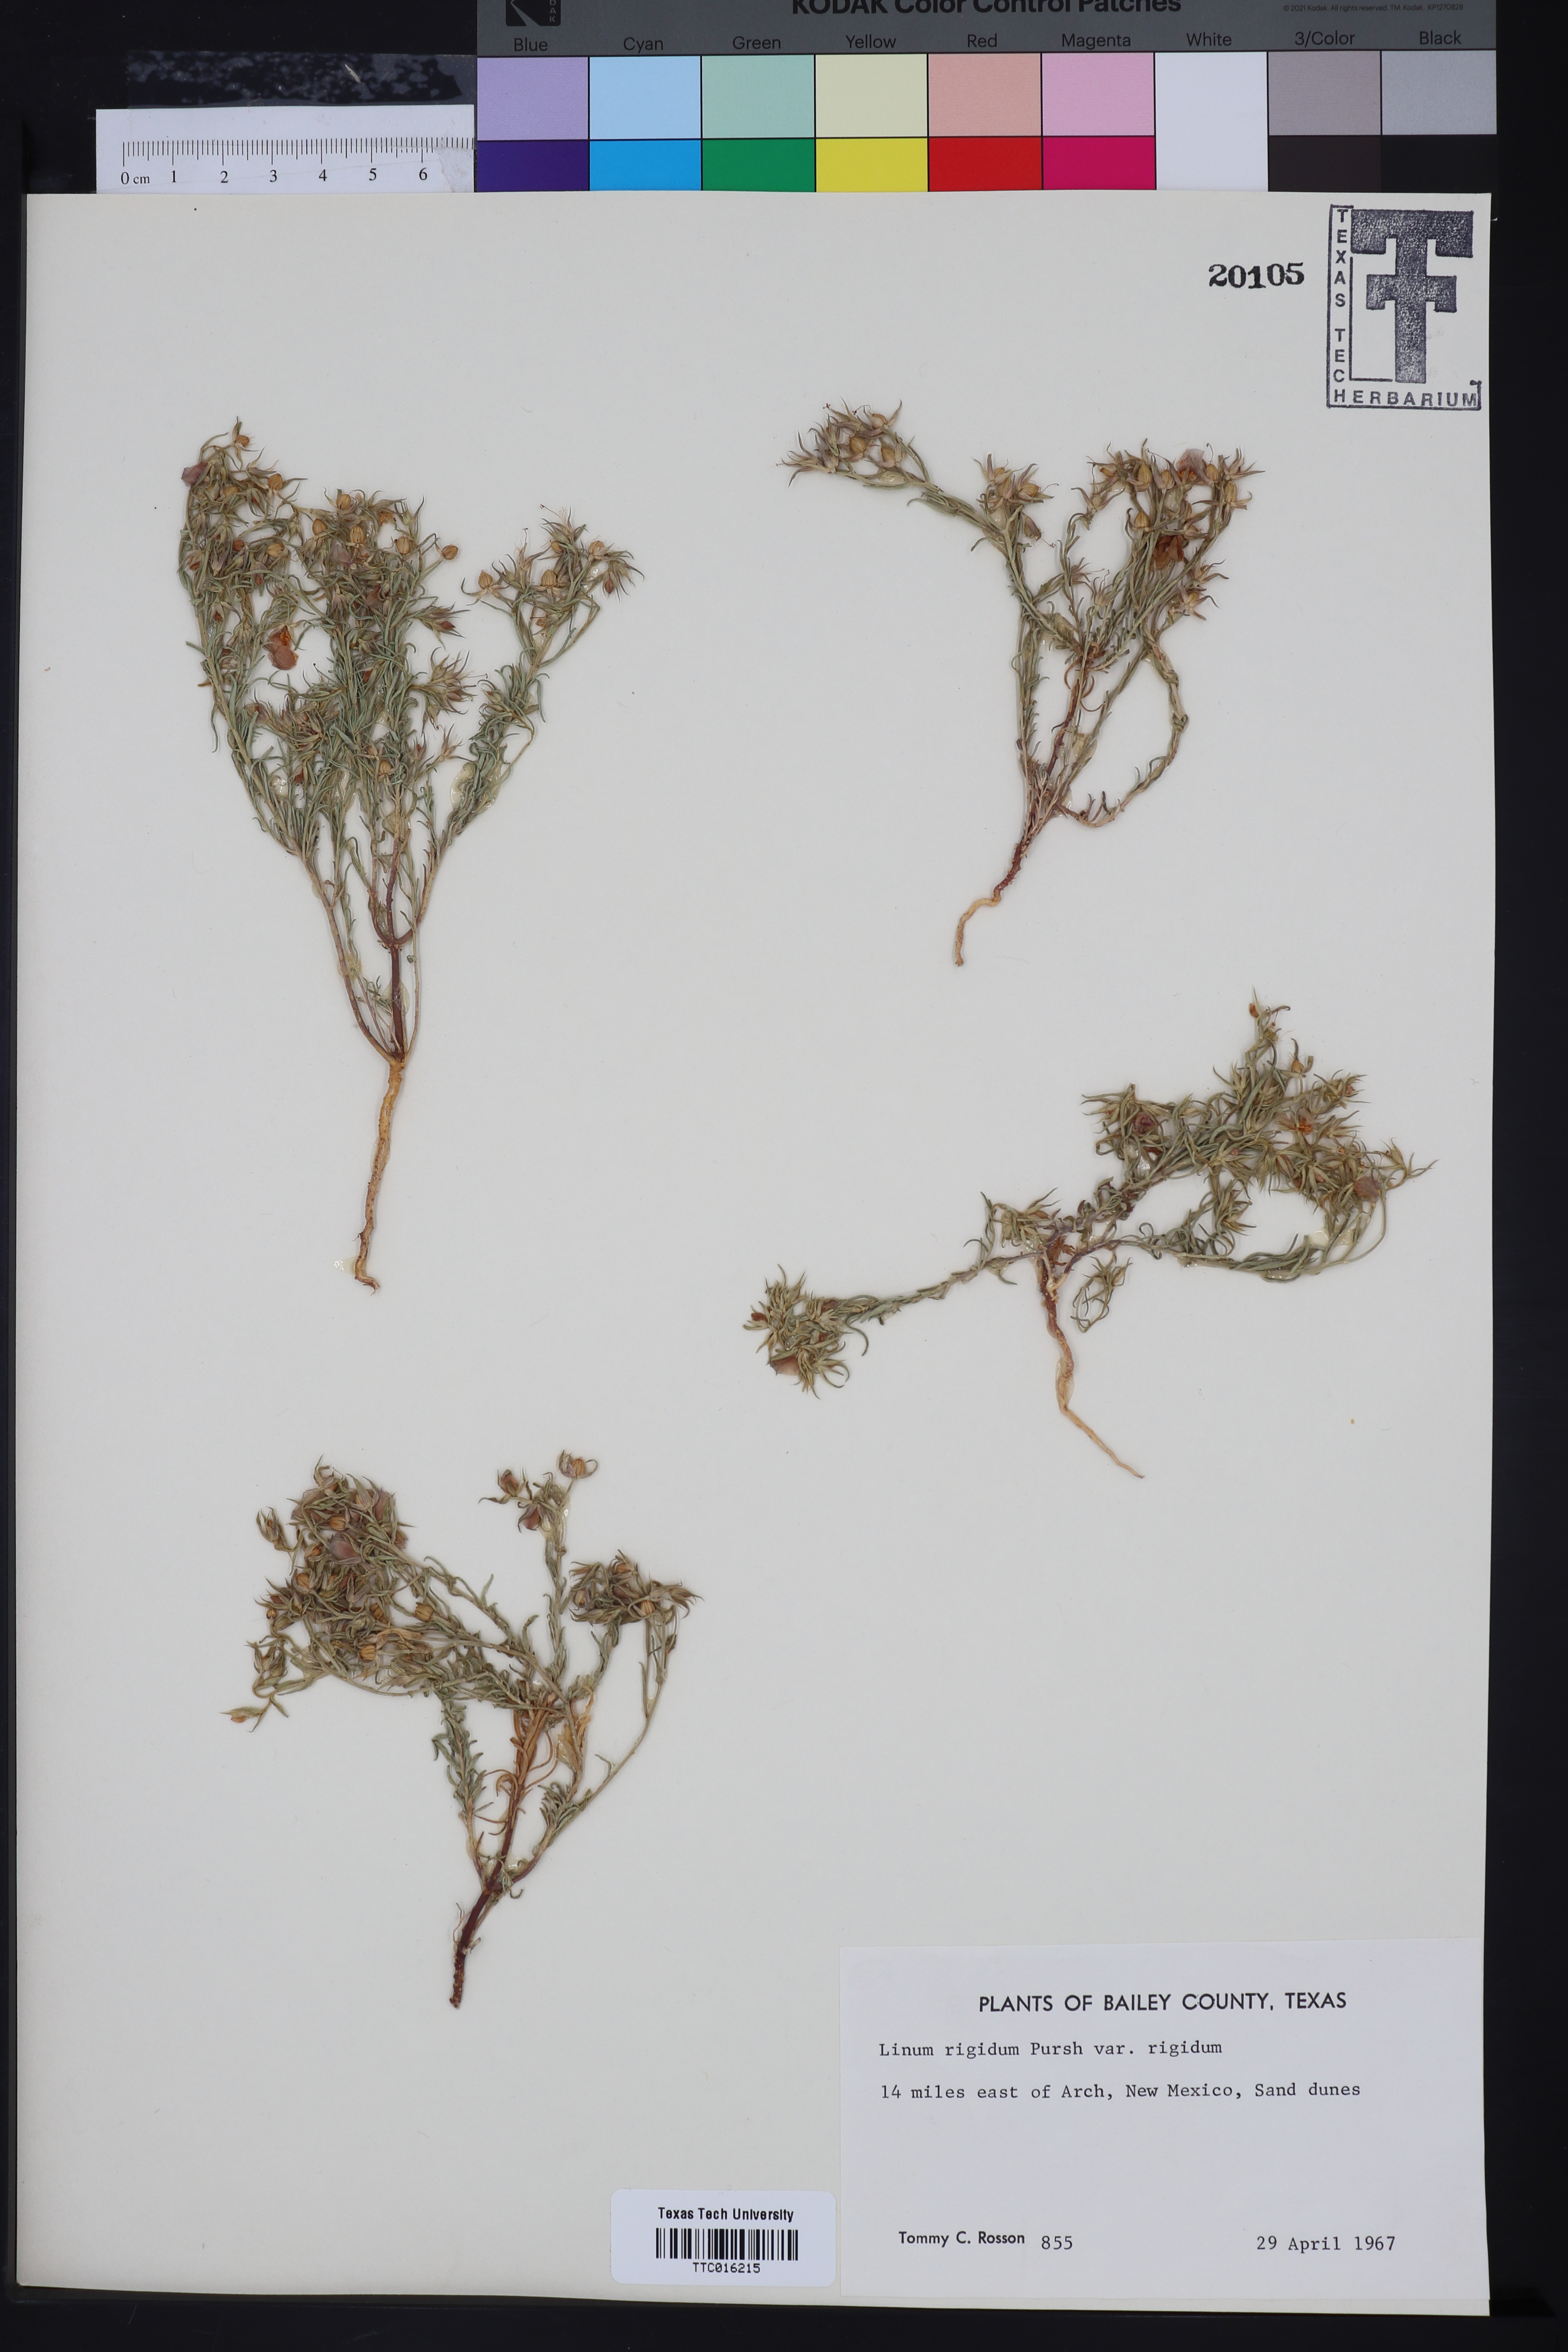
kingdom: Plantae
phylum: Tracheophyta
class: Magnoliopsida
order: Malpighiales
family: Linaceae
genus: Linum
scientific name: Linum rigidum
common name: Stiff-stem flax
